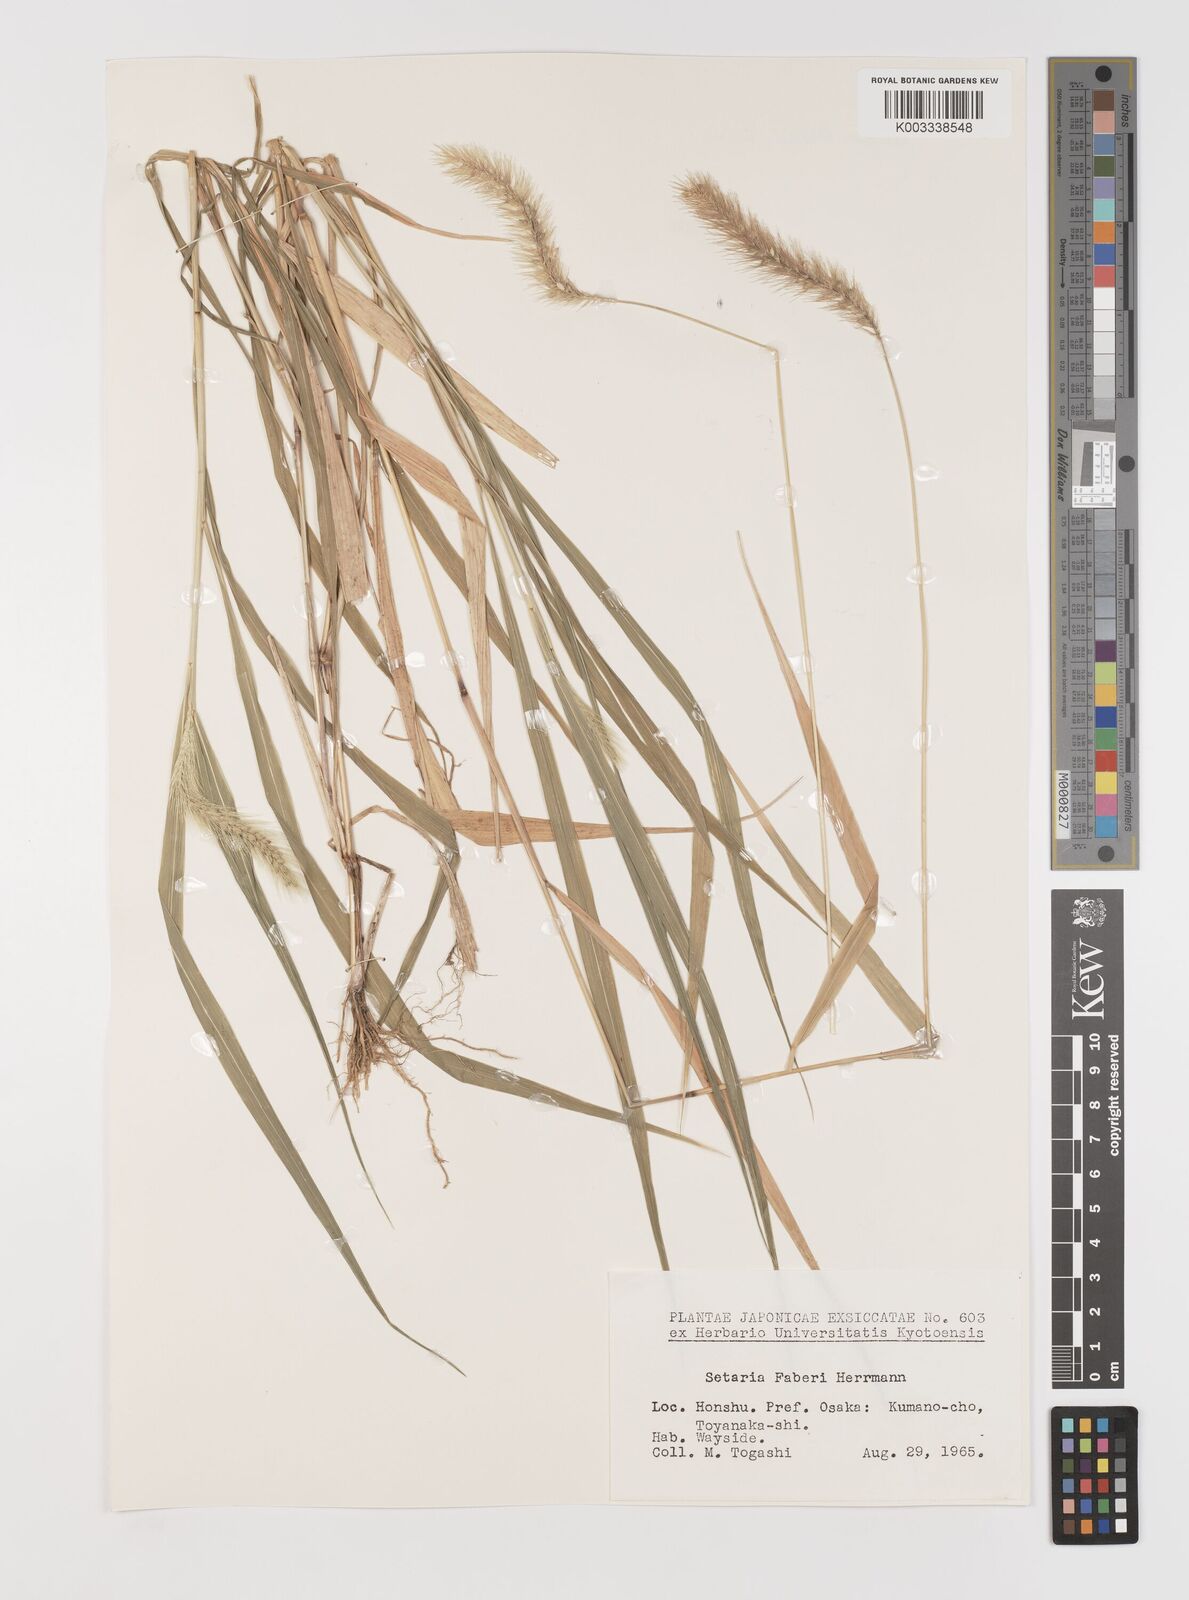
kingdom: Plantae
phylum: Tracheophyta
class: Liliopsida
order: Poales
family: Poaceae
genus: Setaria
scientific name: Setaria faberi
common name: Nodding bristle-grass
